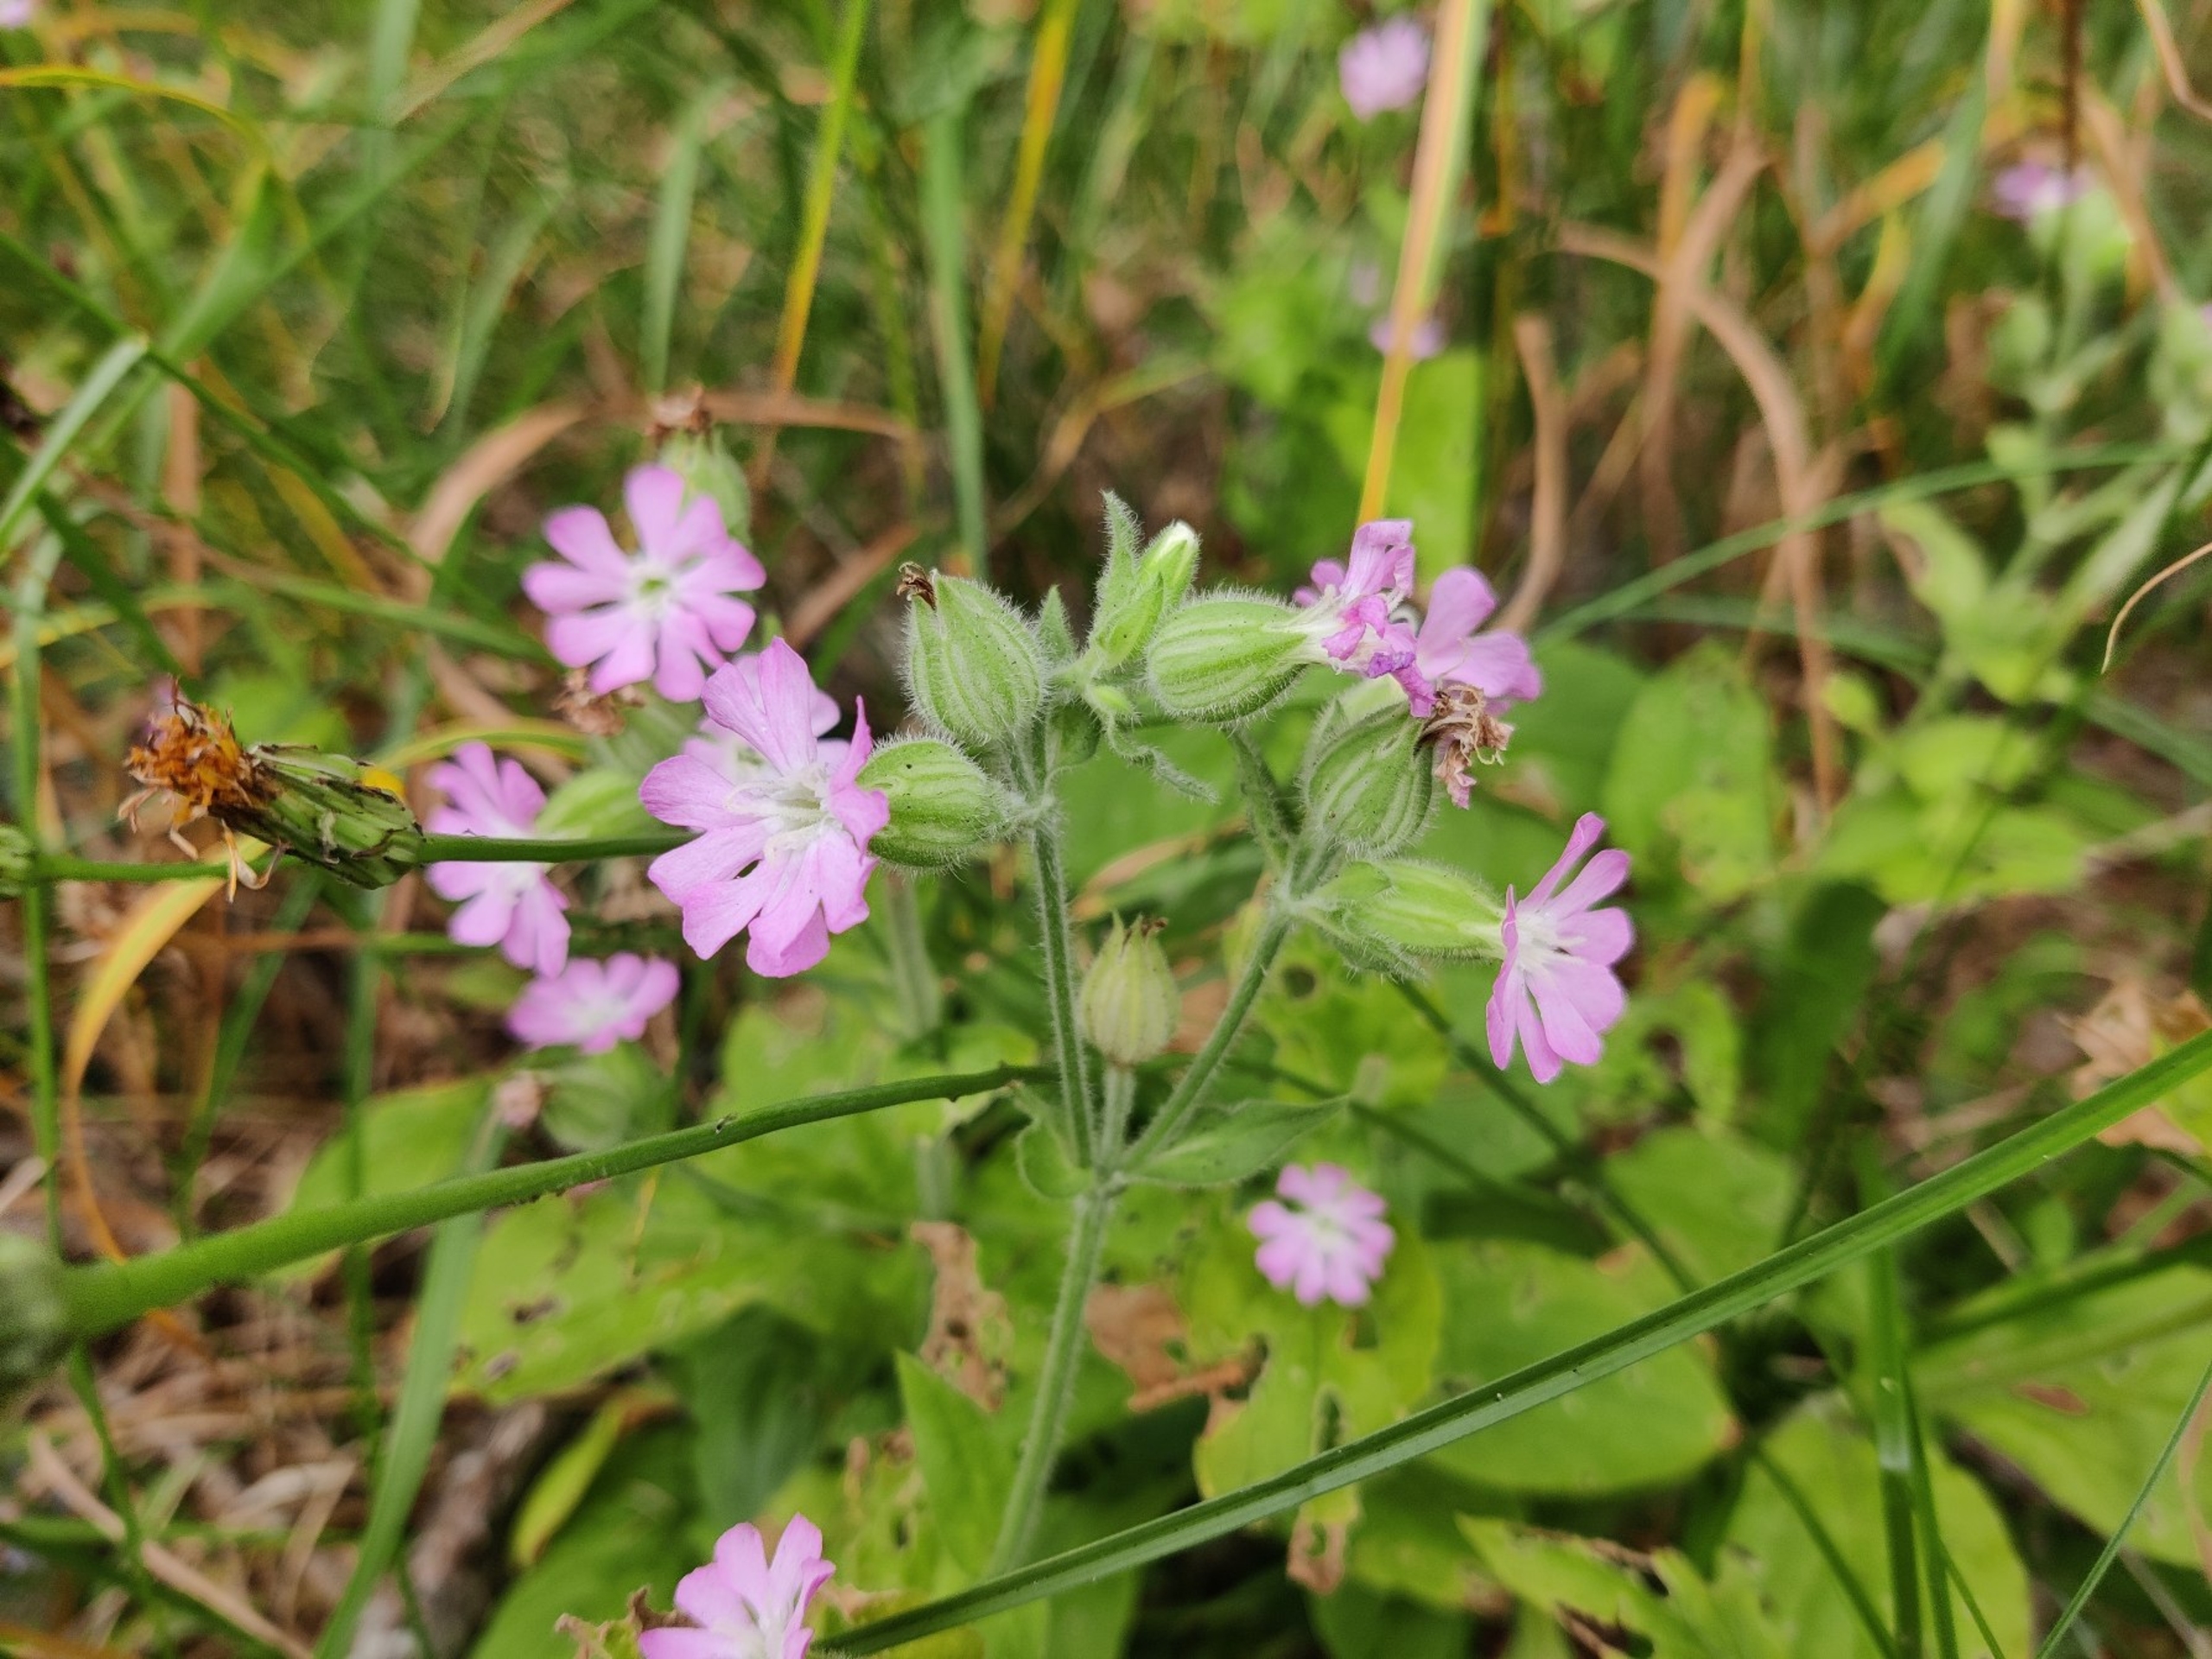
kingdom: Plantae
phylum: Tracheophyta
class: Magnoliopsida
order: Caryophyllales
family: Caryophyllaceae
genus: Silene
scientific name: Silene dioica
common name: Dagpragtstjerne
